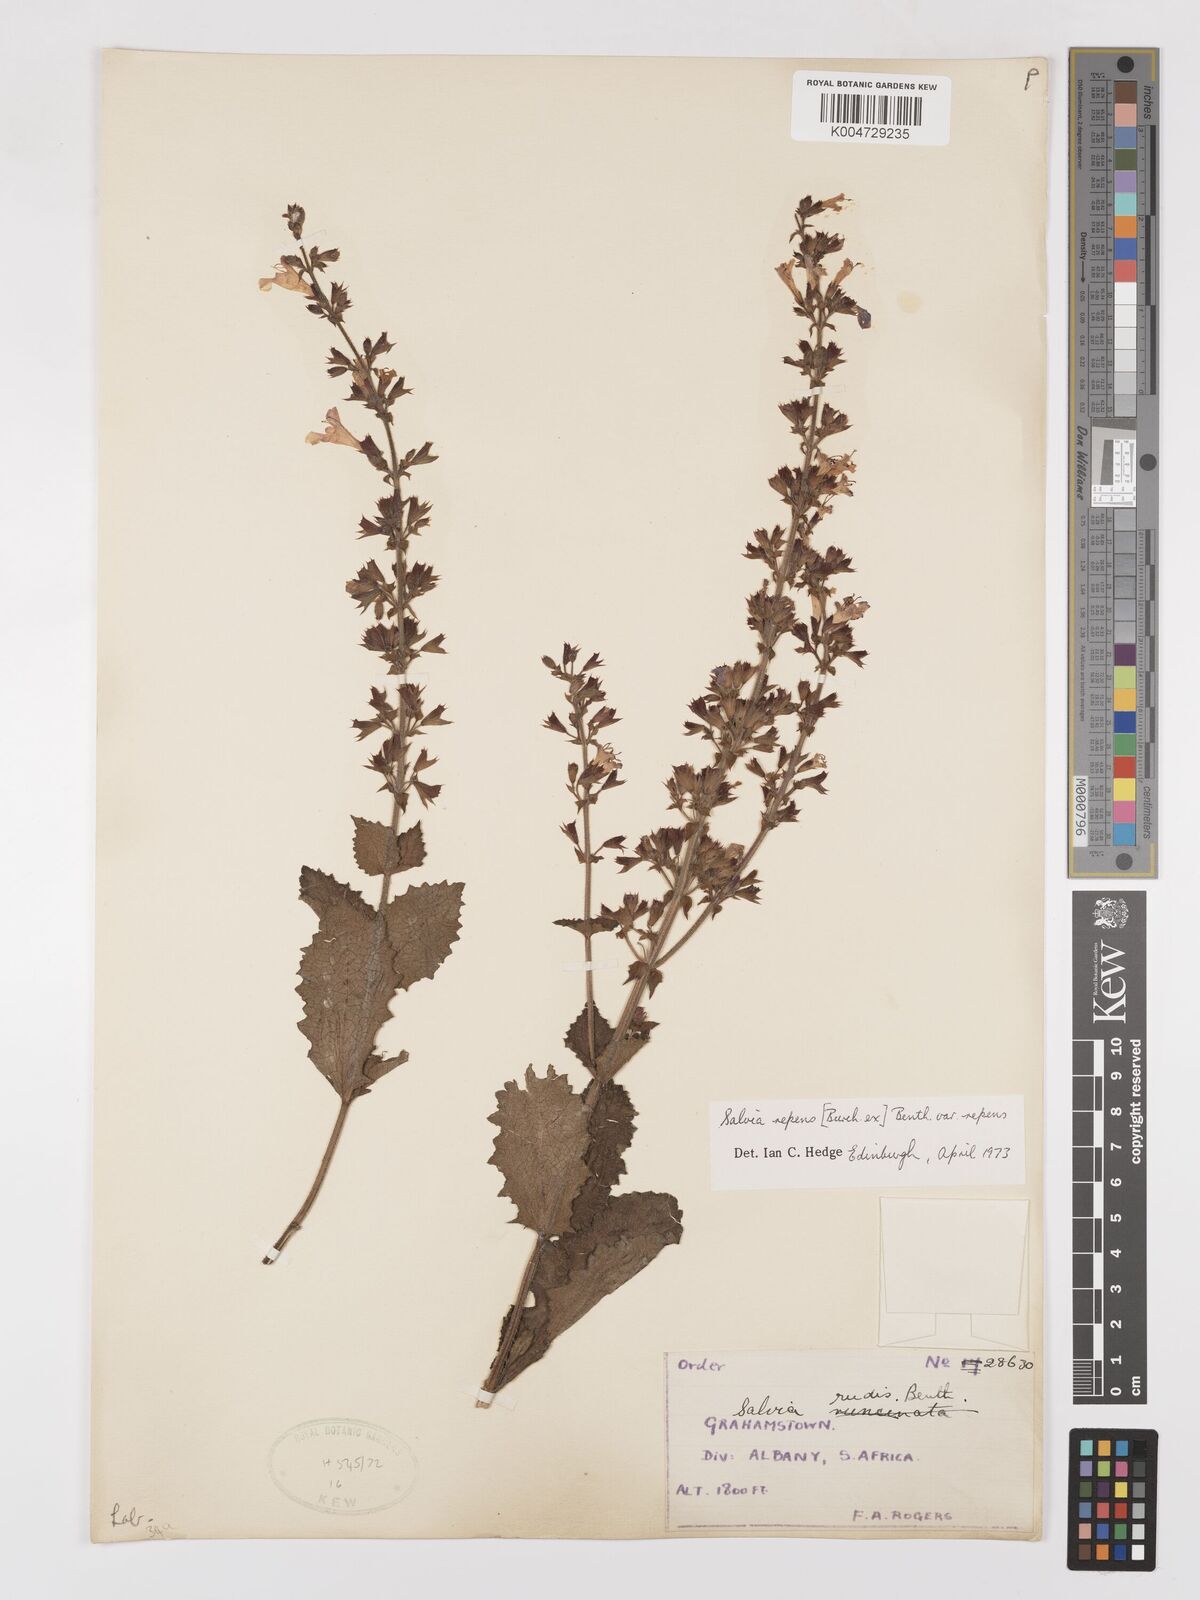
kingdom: Plantae
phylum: Tracheophyta
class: Magnoliopsida
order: Lamiales
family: Lamiaceae
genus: Salvia
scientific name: Salvia repens
